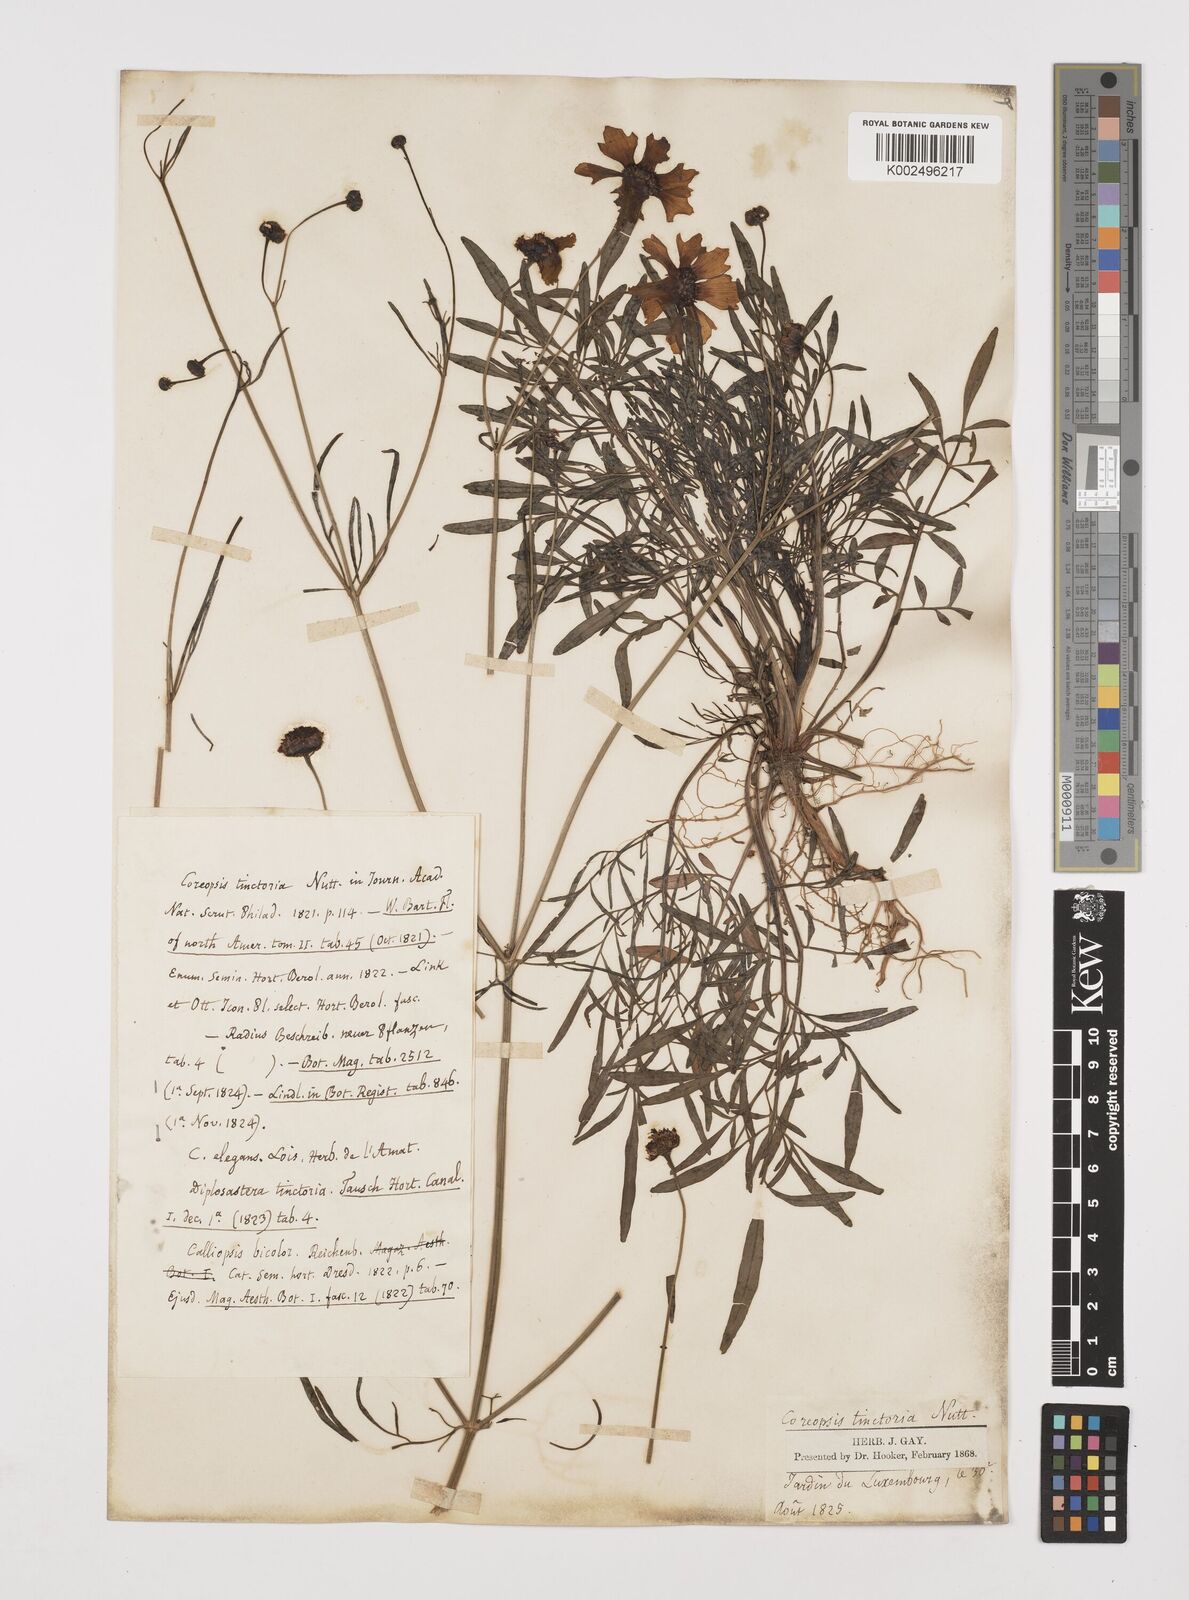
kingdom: Plantae
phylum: Tracheophyta
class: Magnoliopsida
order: Asterales
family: Asteraceae
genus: Coreopsis
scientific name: Coreopsis tinctoria
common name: Garden tickseed
